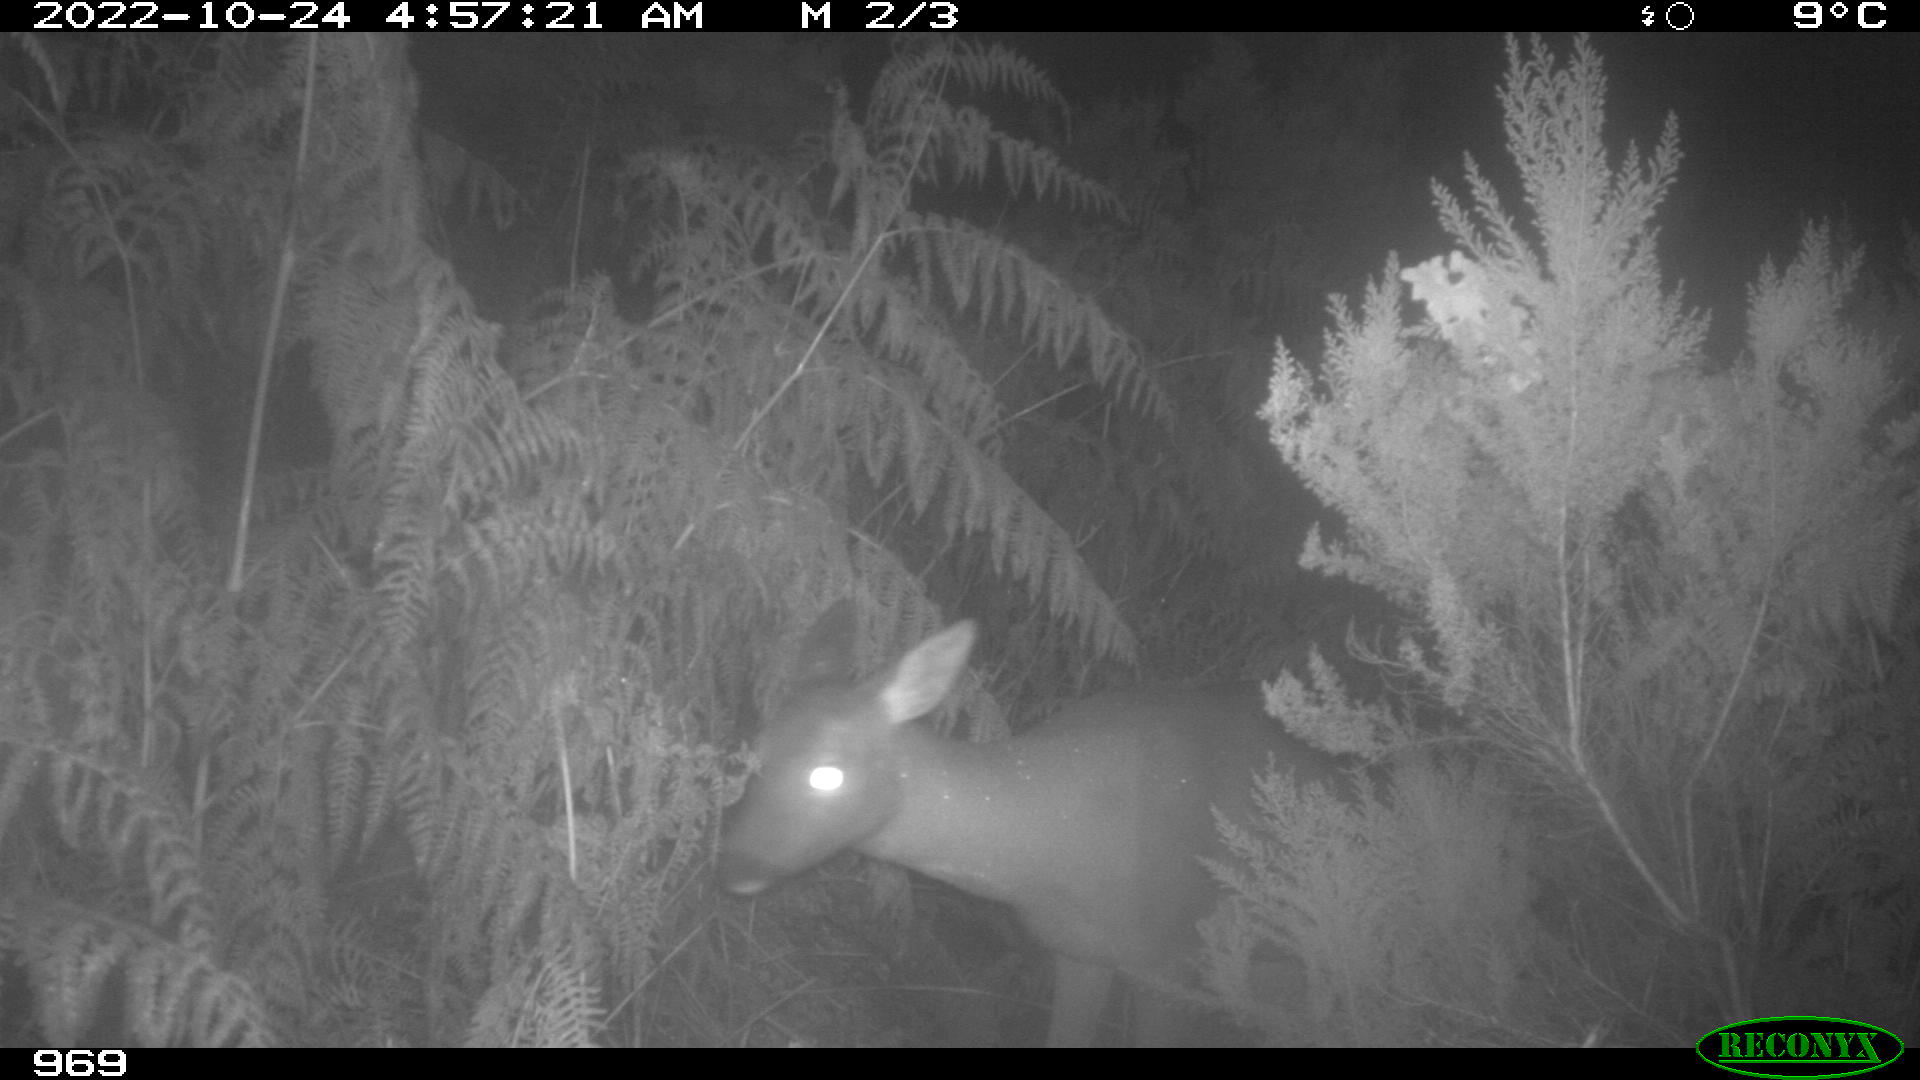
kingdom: Animalia
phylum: Chordata
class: Mammalia
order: Artiodactyla
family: Cervidae
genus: Capreolus
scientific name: Capreolus capreolus
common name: Western roe deer
